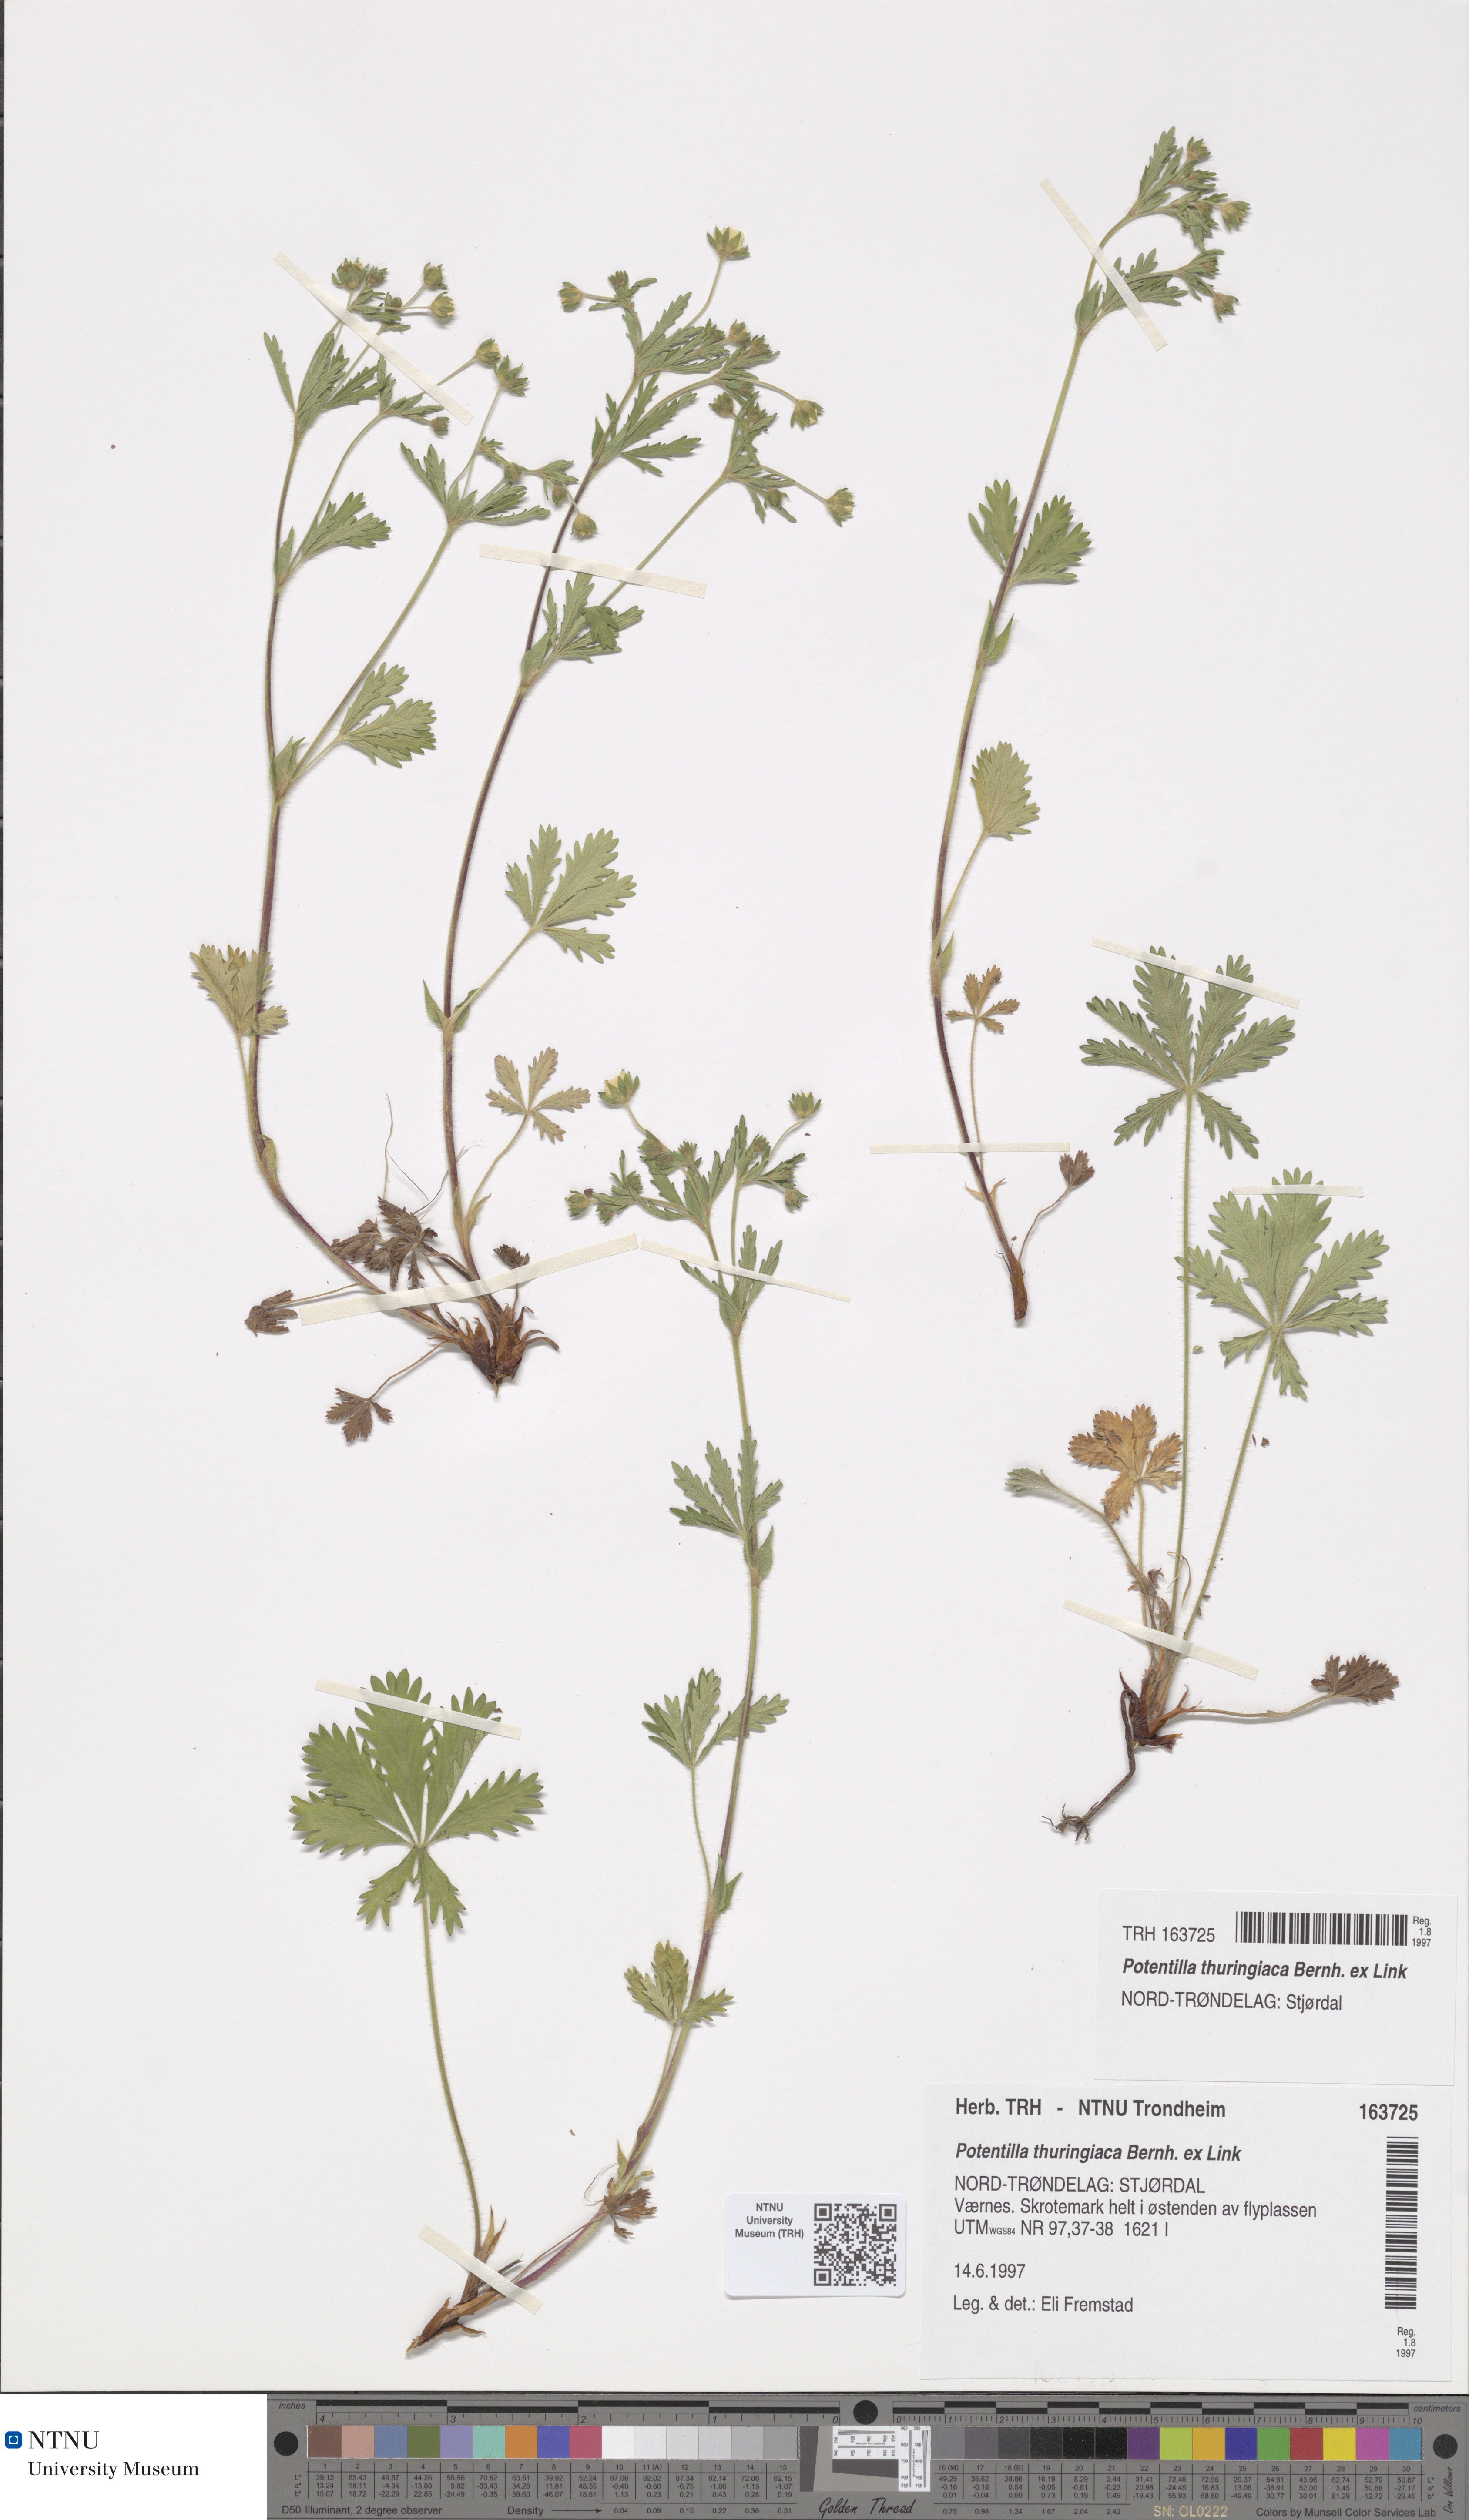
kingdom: Plantae
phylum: Tracheophyta
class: Magnoliopsida
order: Rosales
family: Rosaceae
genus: Potentilla
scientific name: Potentilla thuringiaca
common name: European cinquefoil
